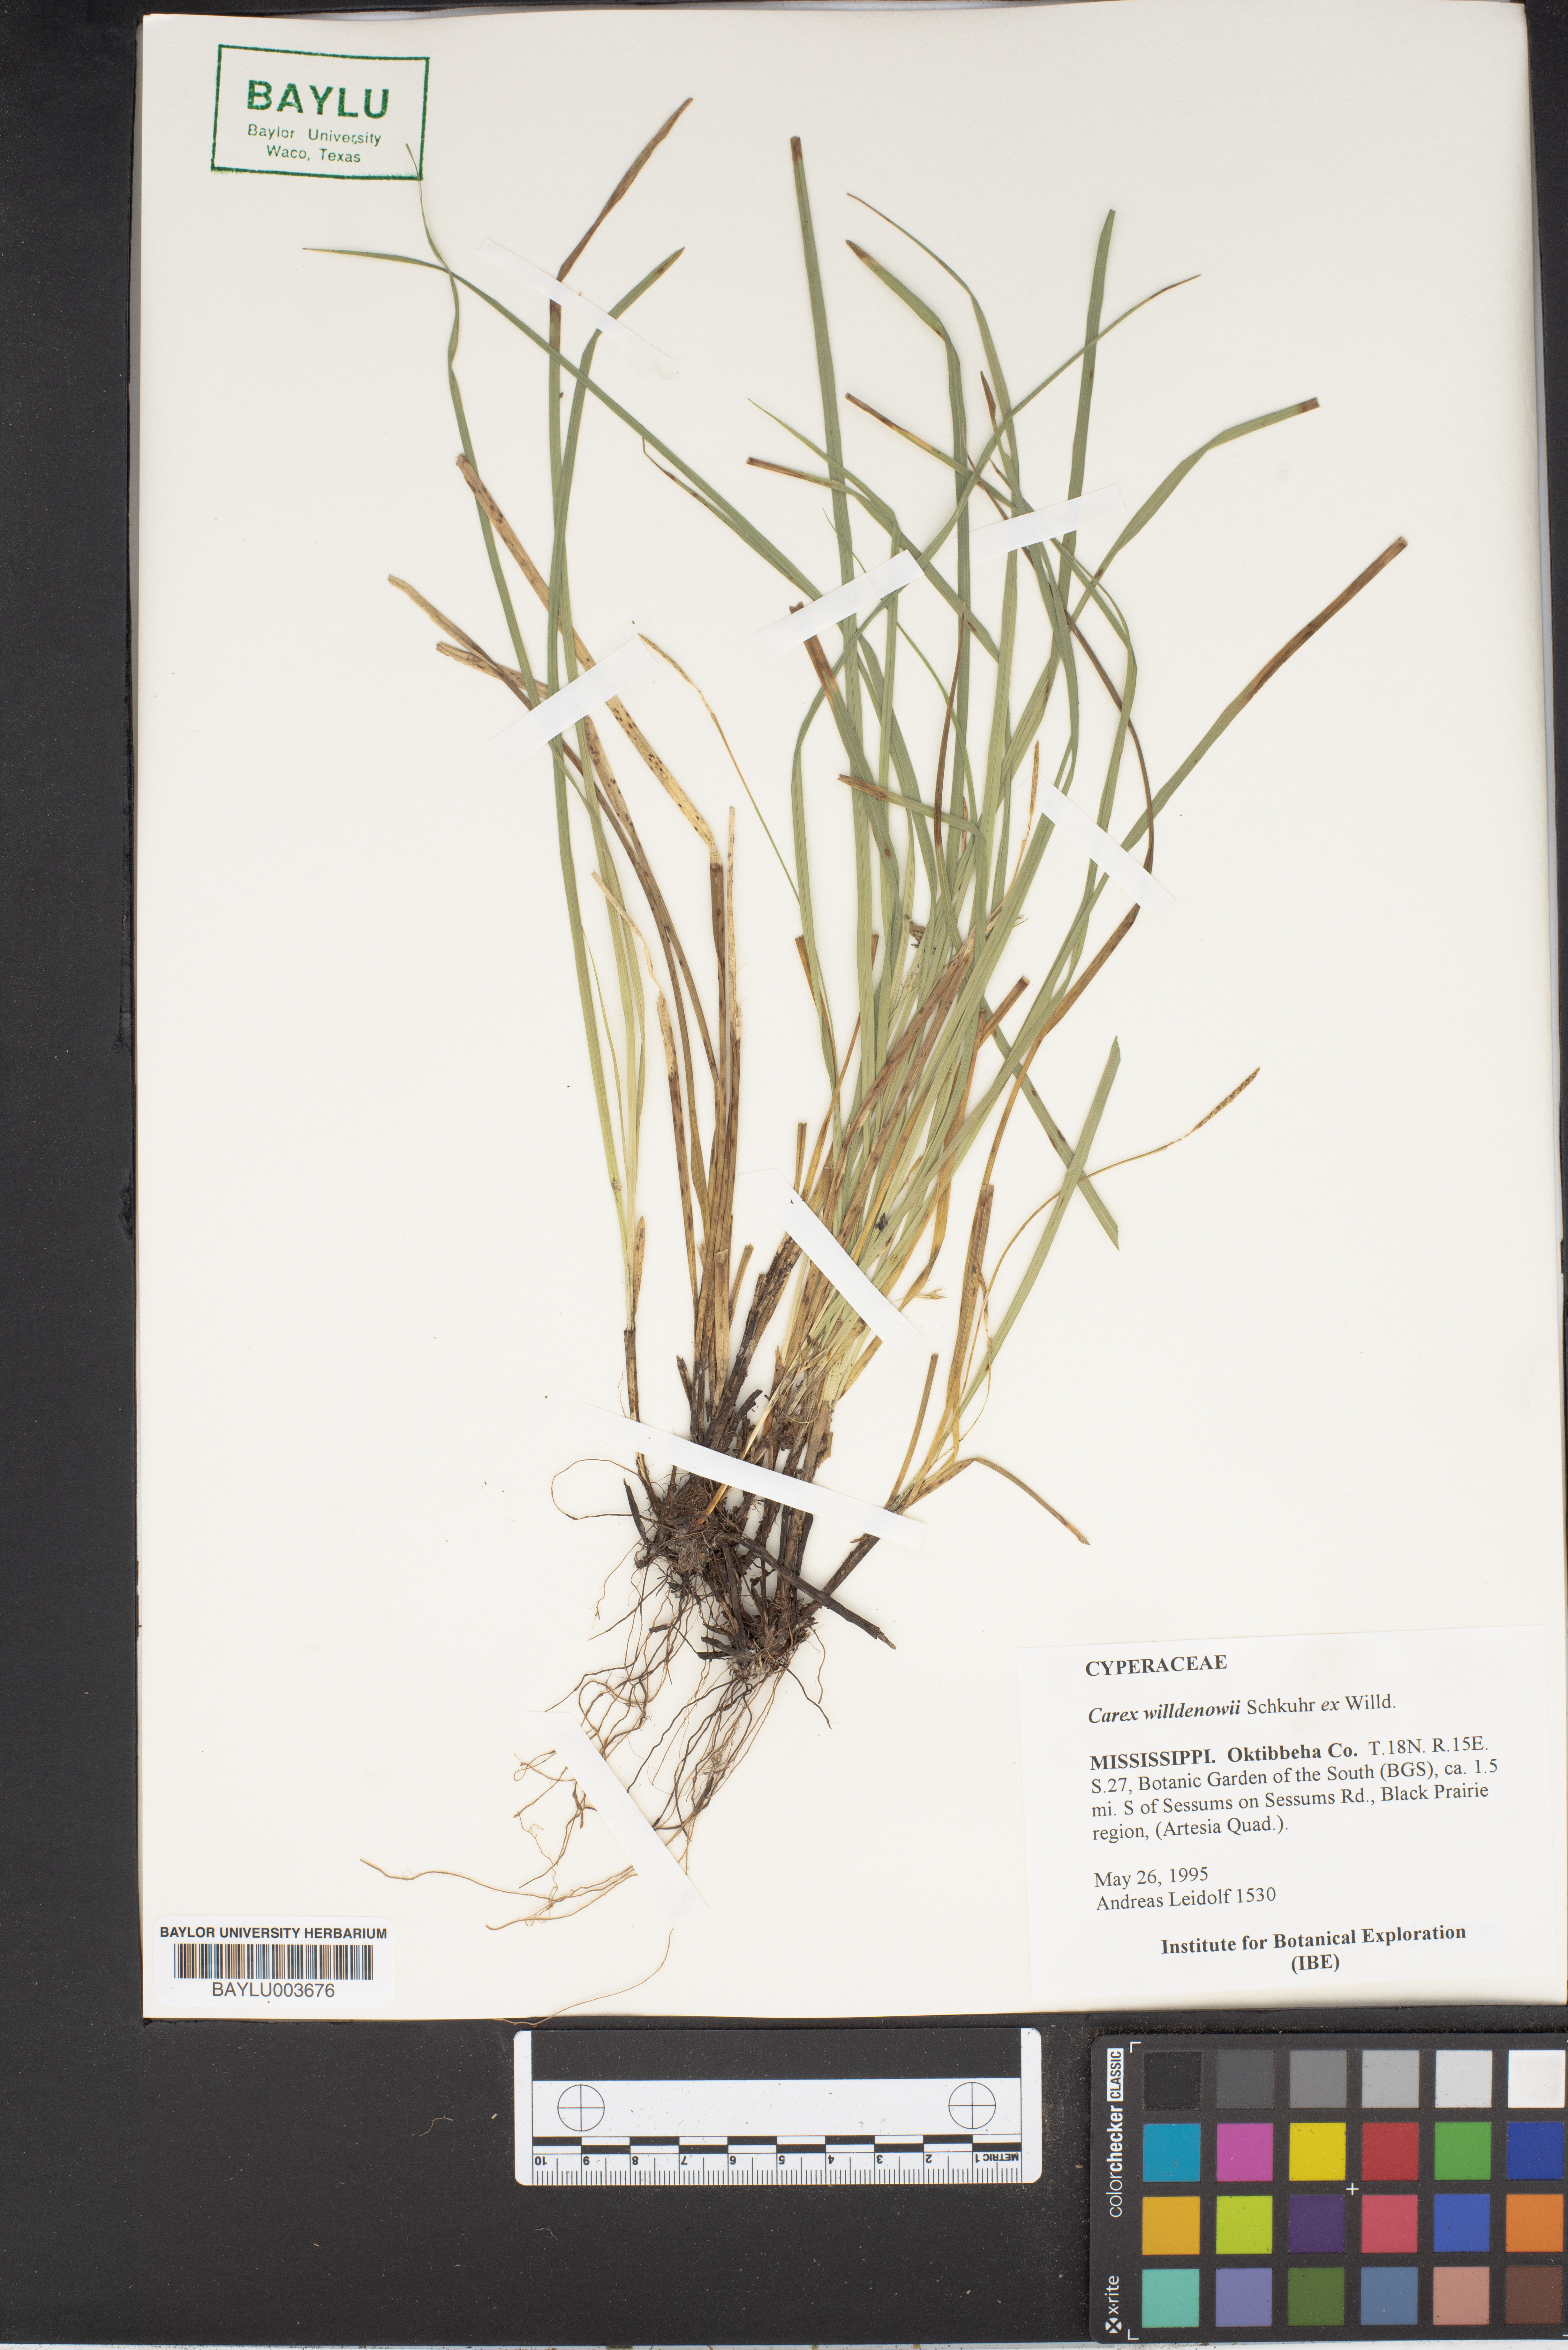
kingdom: Plantae
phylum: Tracheophyta
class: Liliopsida
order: Poales
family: Cyperaceae
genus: Carex
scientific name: Carex willdenowii
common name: Willdenow's sedge
